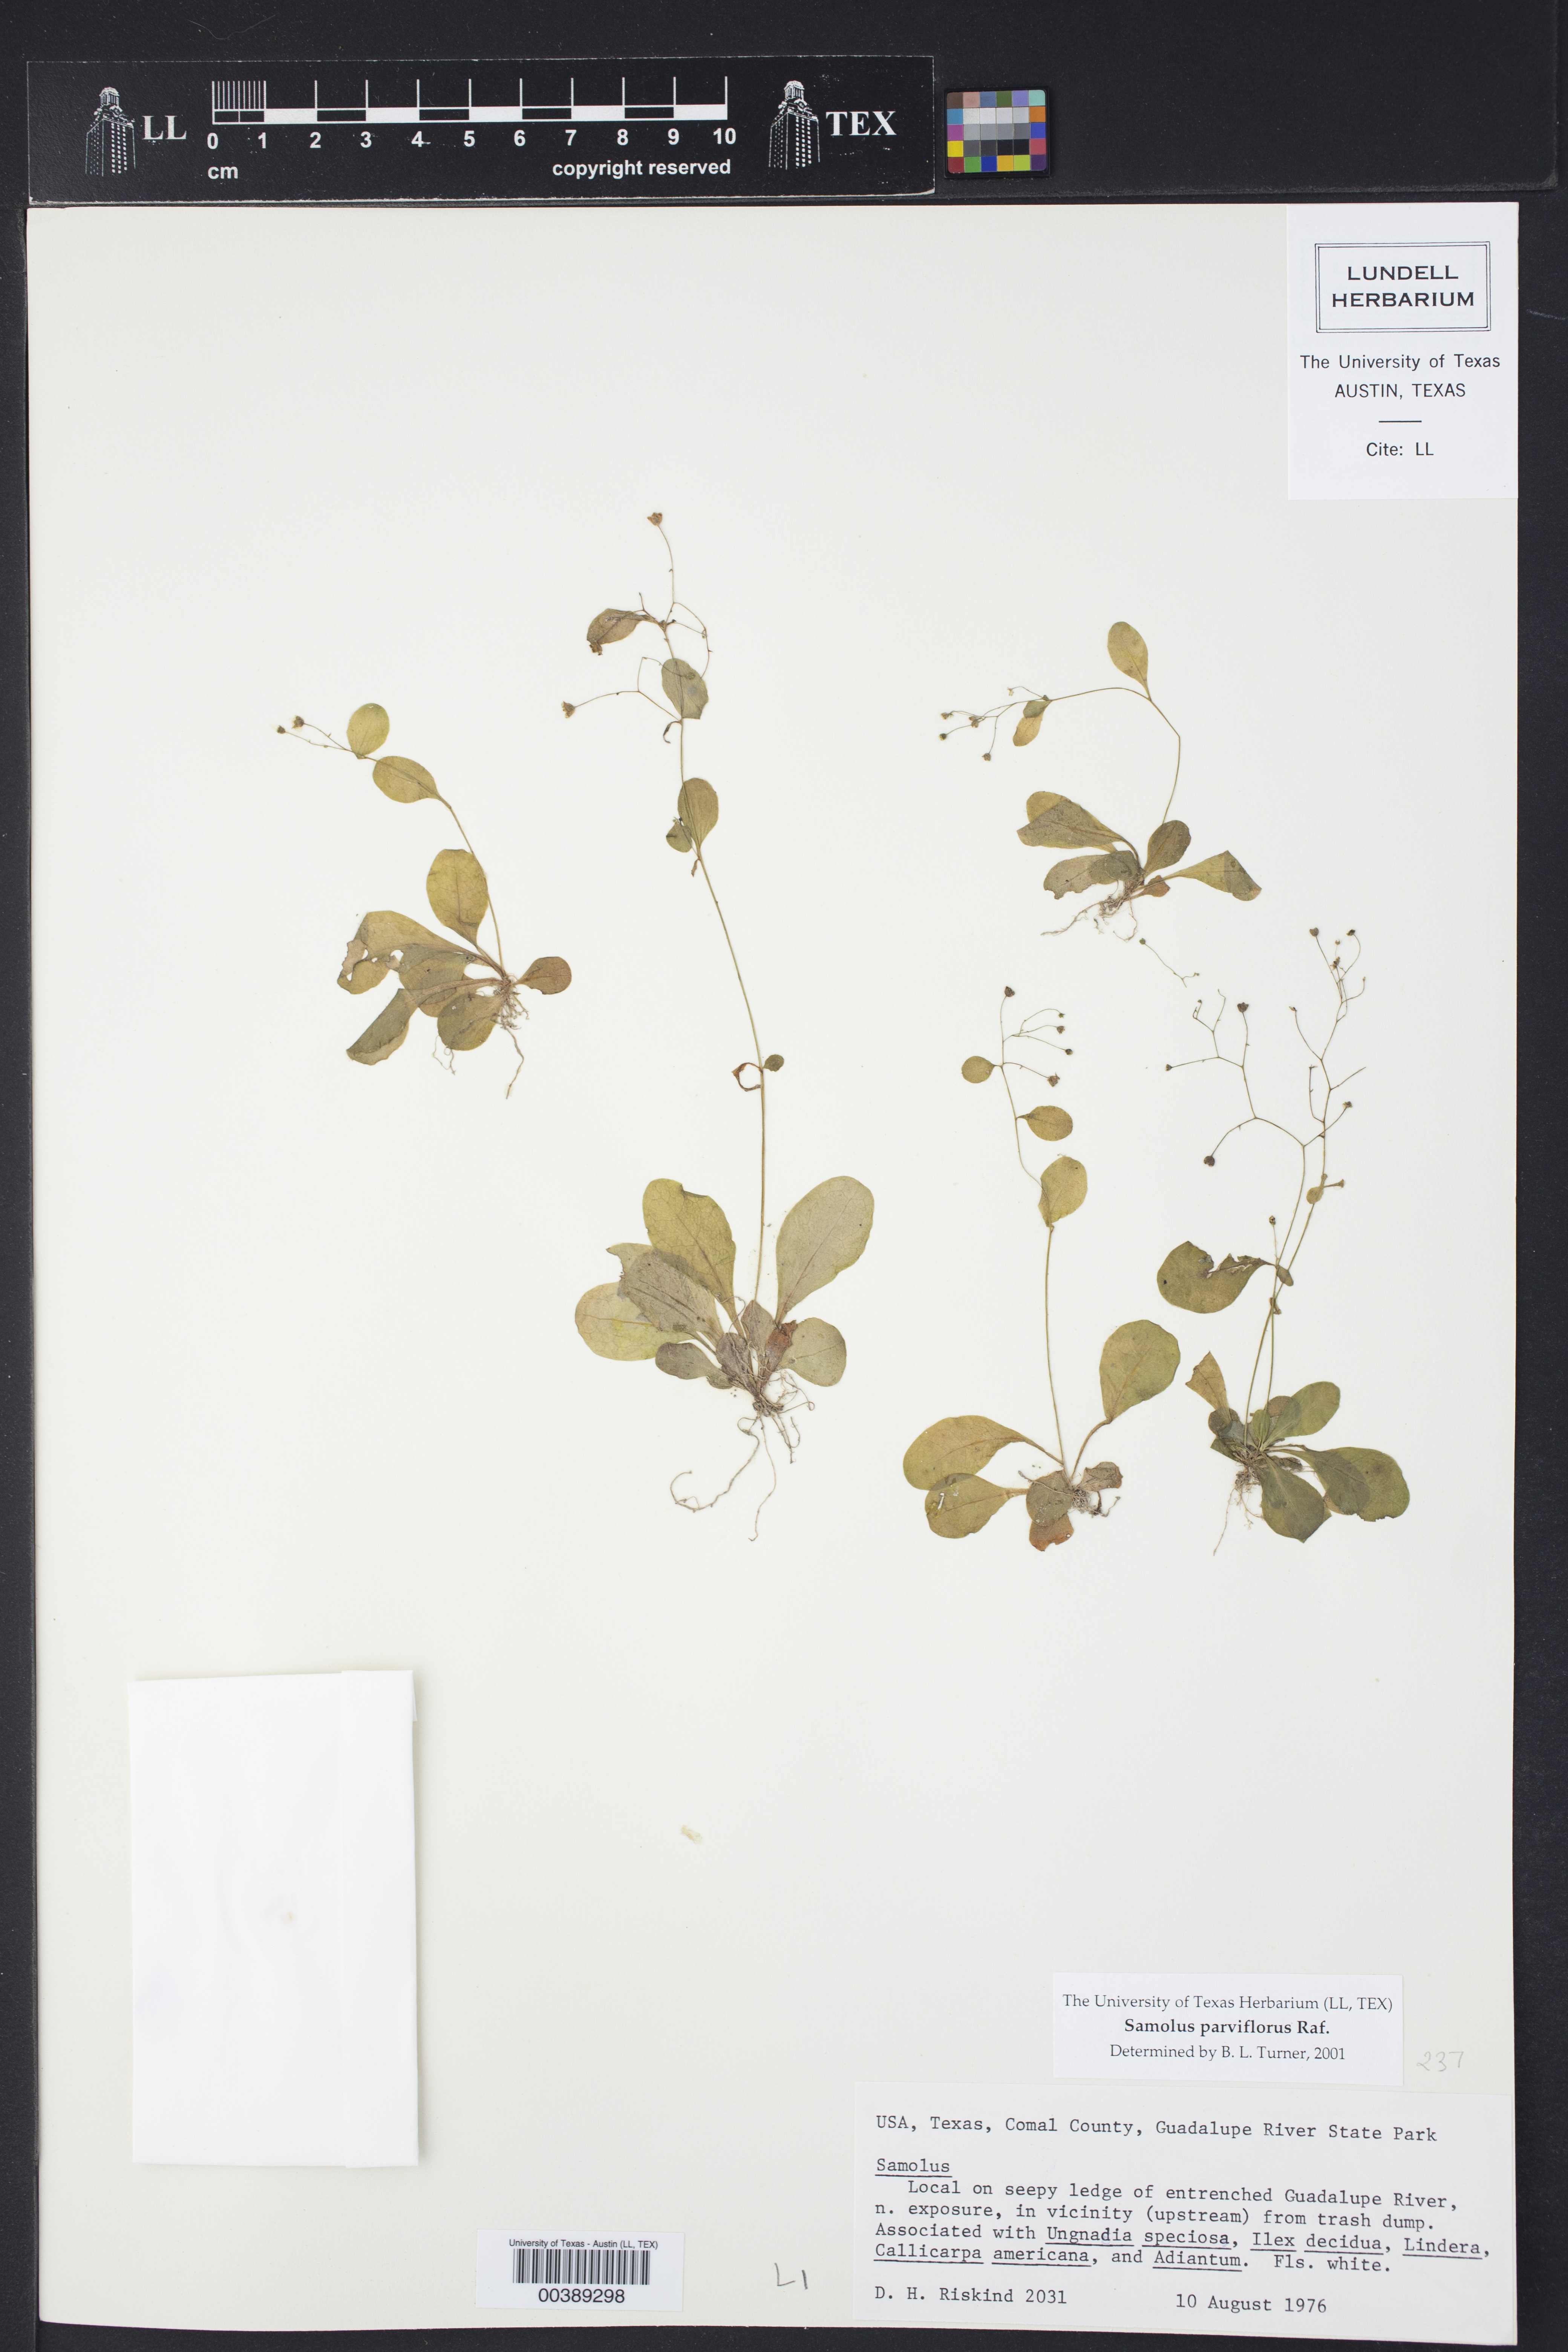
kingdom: Plantae
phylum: Tracheophyta
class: Magnoliopsida
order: Ericales
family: Primulaceae
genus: Samolus
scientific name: Samolus parviflorus
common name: False water pimpernel
